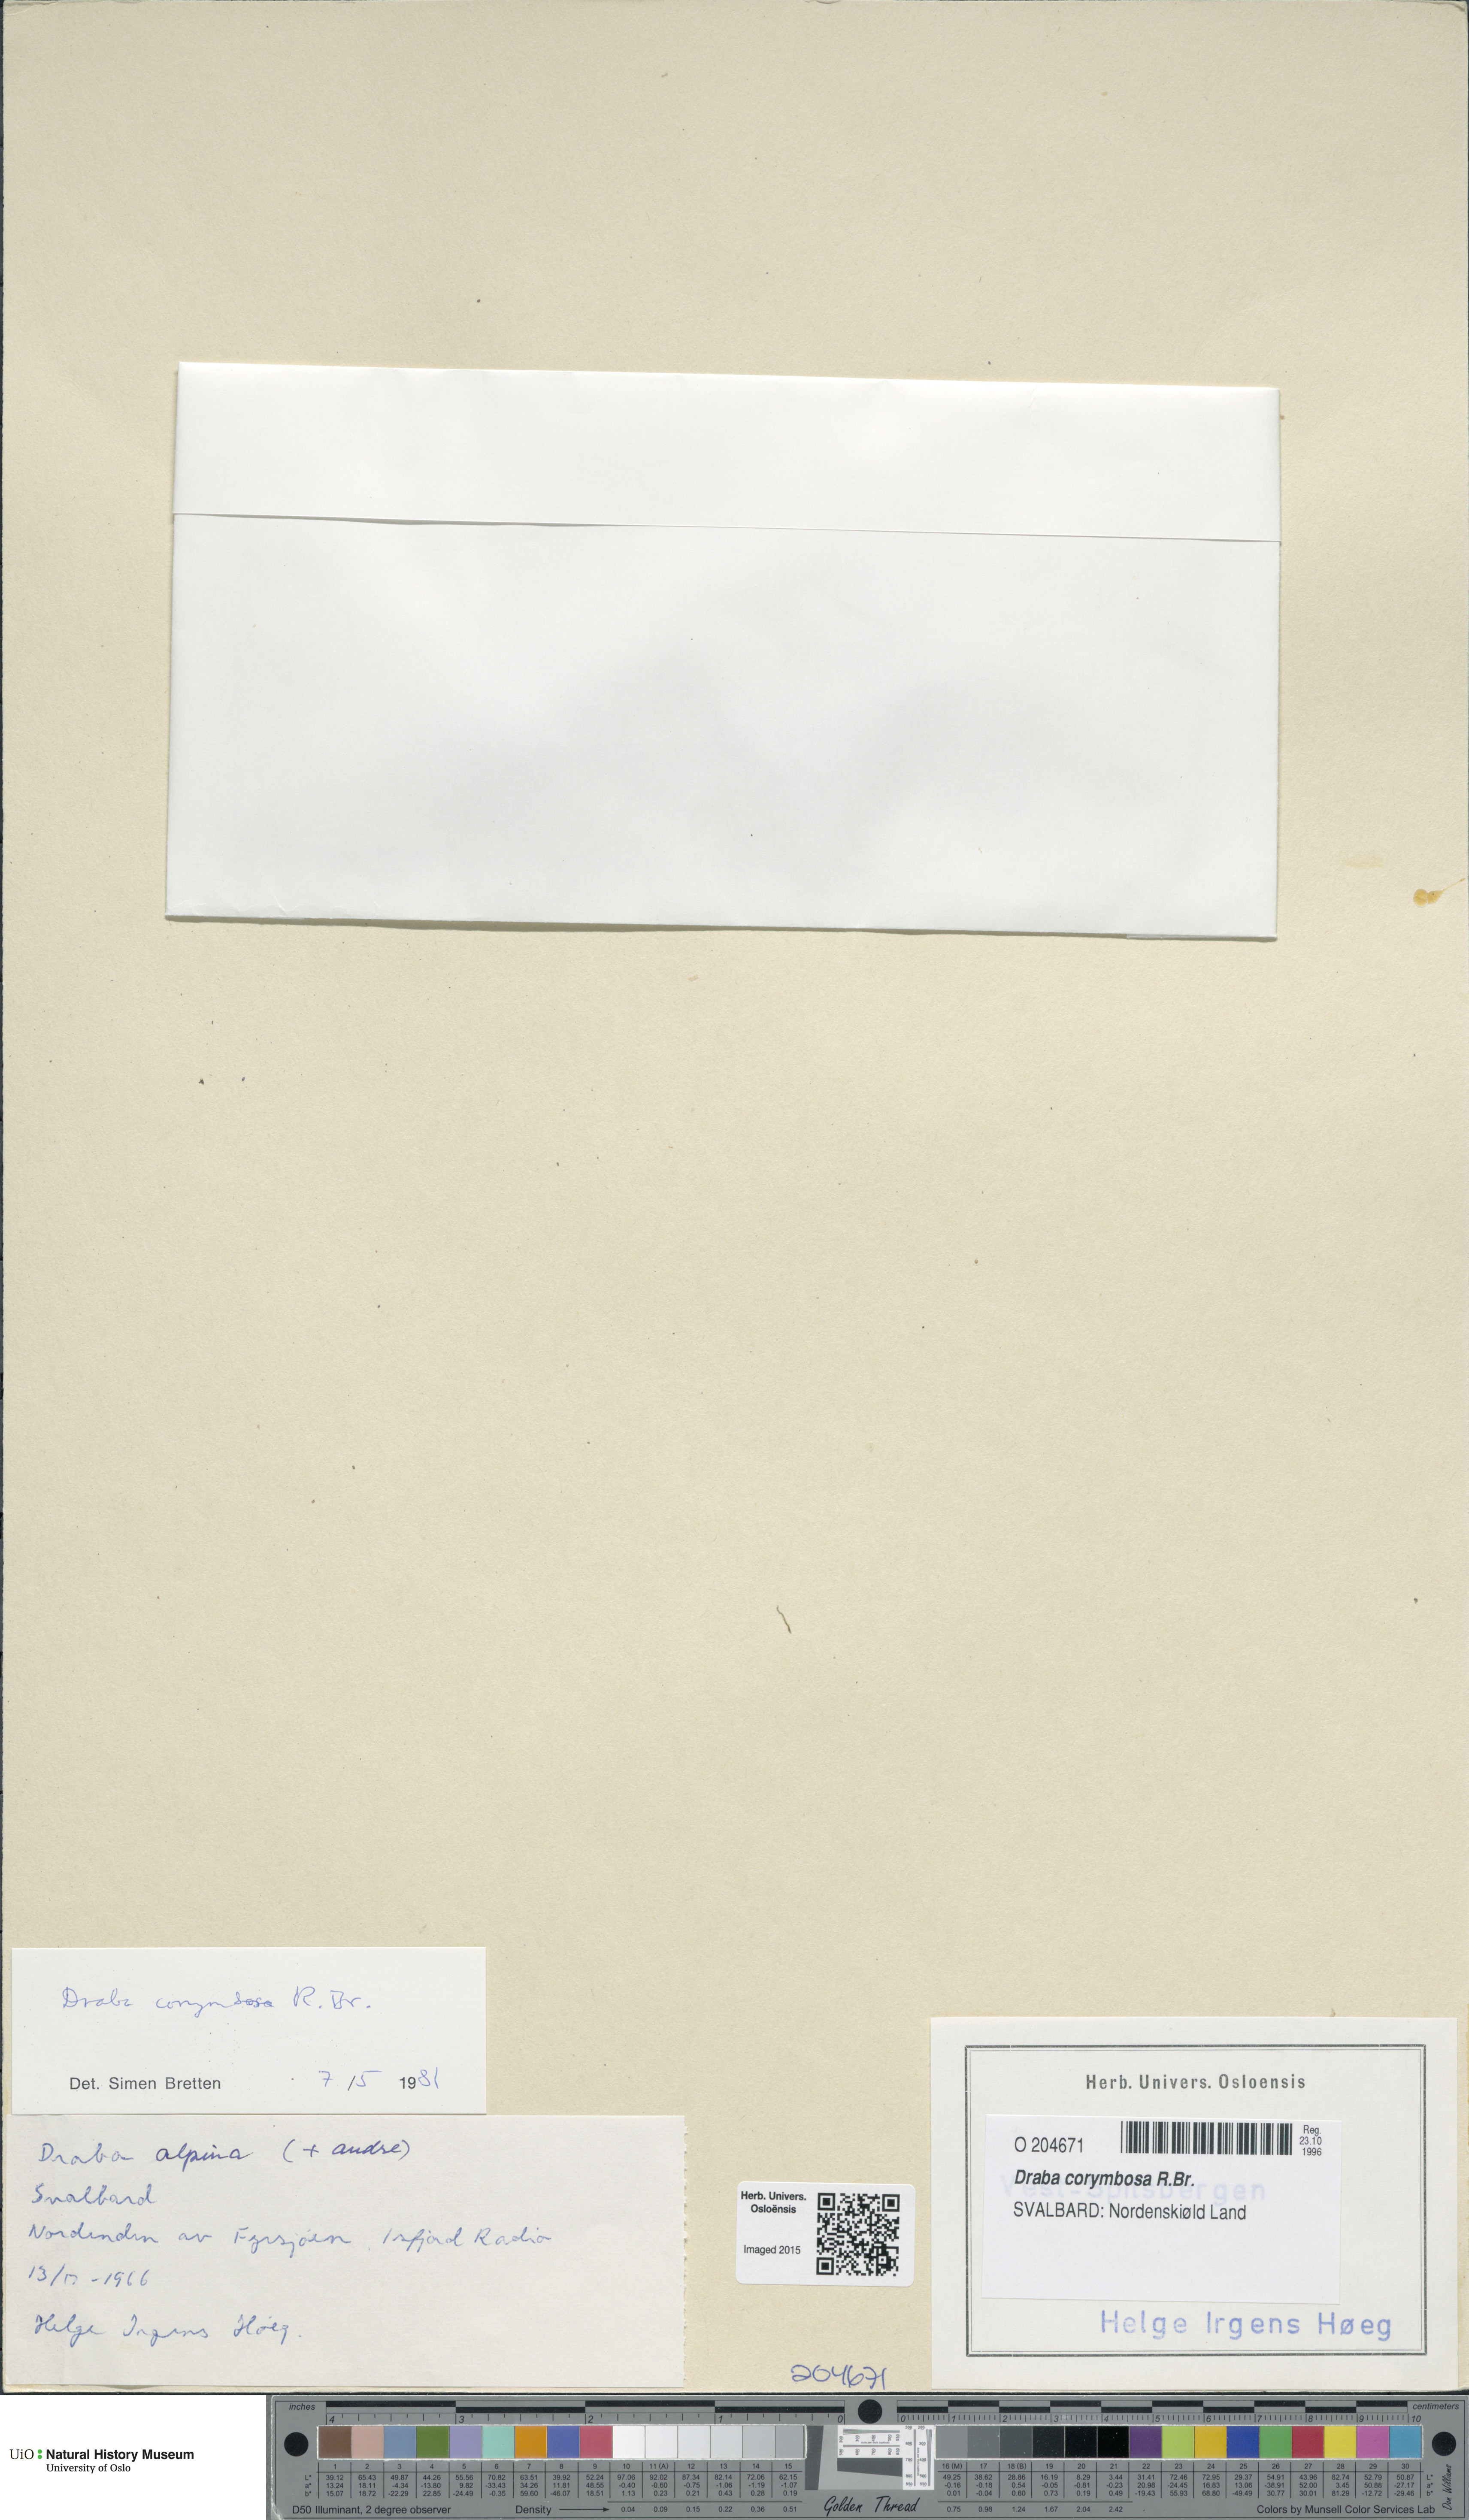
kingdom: Plantae
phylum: Tracheophyta
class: Magnoliopsida
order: Brassicales
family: Brassicaceae
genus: Draba
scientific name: Draba corymbosa
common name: Cushion whitlow-grass
